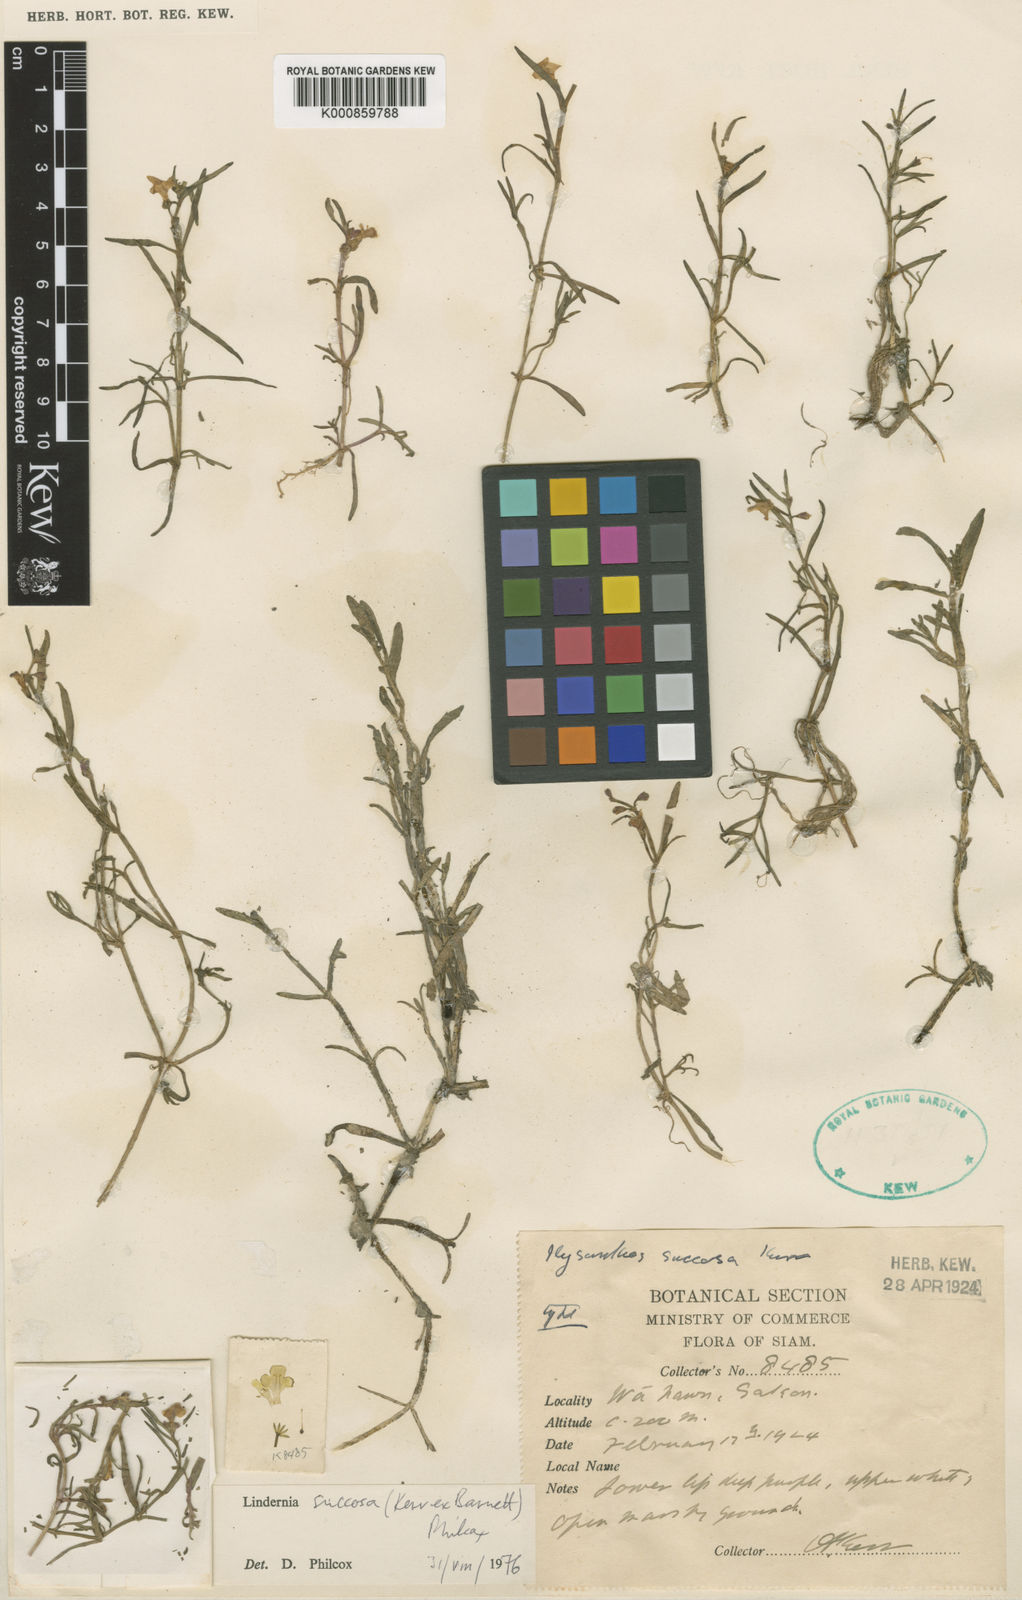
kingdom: Plantae
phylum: Tracheophyta
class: Magnoliopsida
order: Lamiales
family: Linderniaceae
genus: Bonnaya
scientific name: Bonnaya succosa
